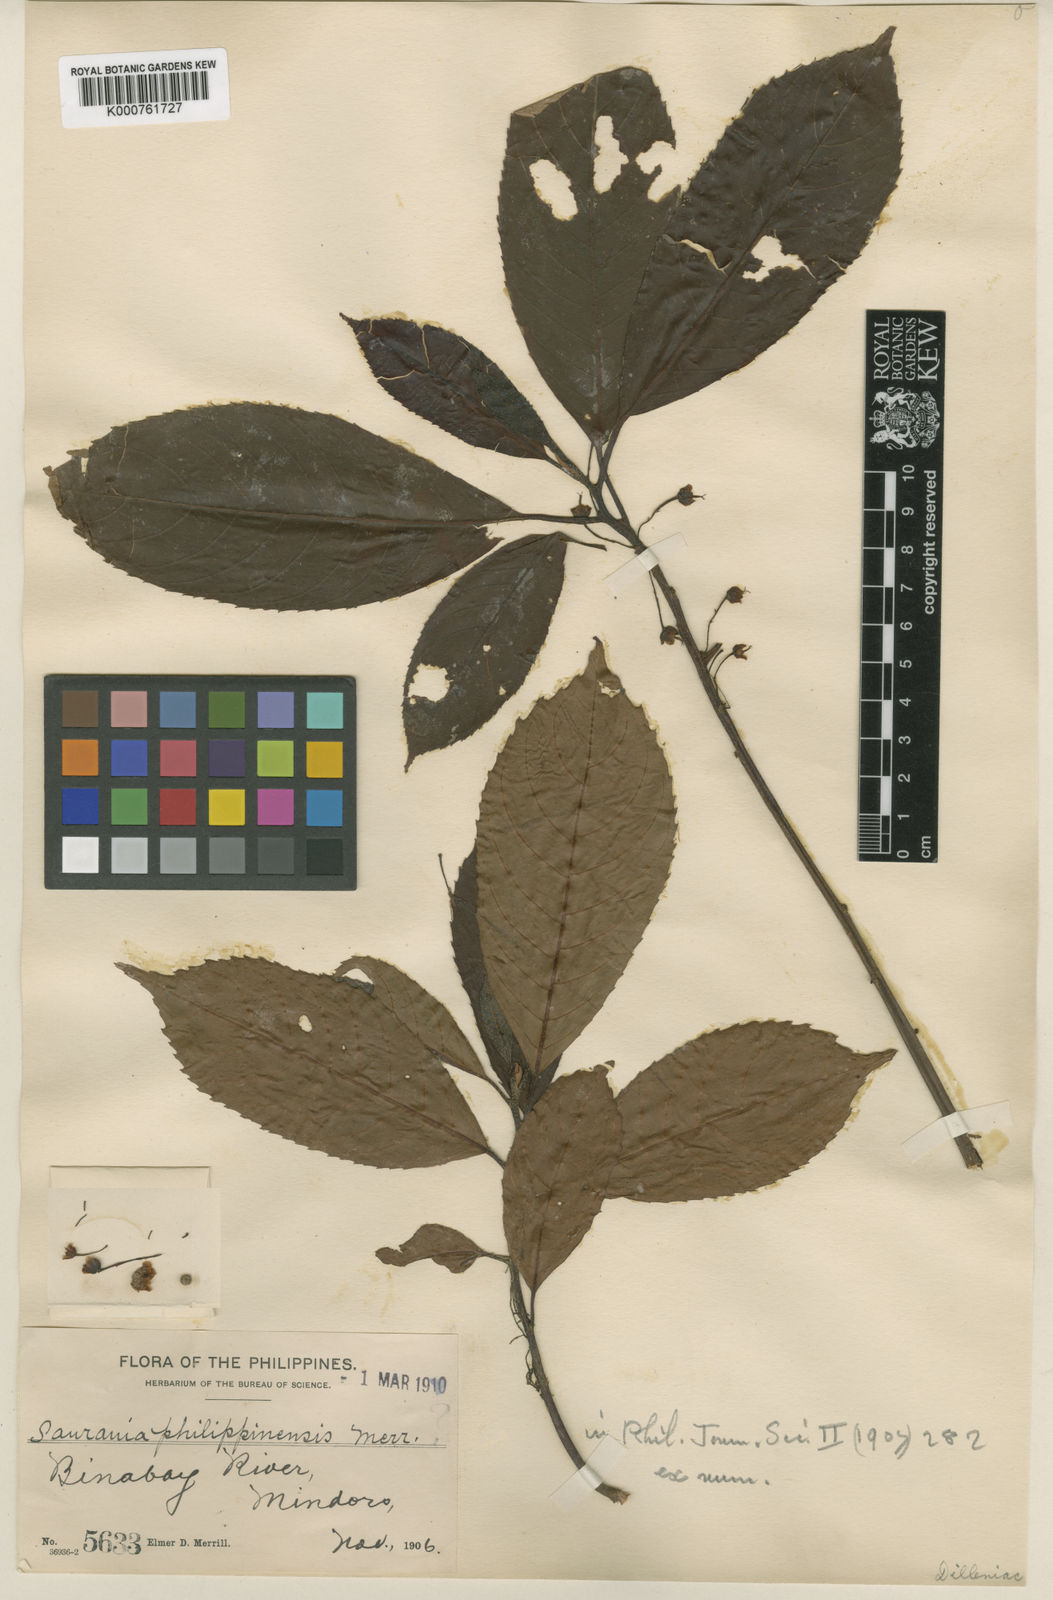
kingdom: Plantae
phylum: Tracheophyta
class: Magnoliopsida
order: Ericales
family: Actinidiaceae
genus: Saurauia
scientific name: Saurauia philippinensis
